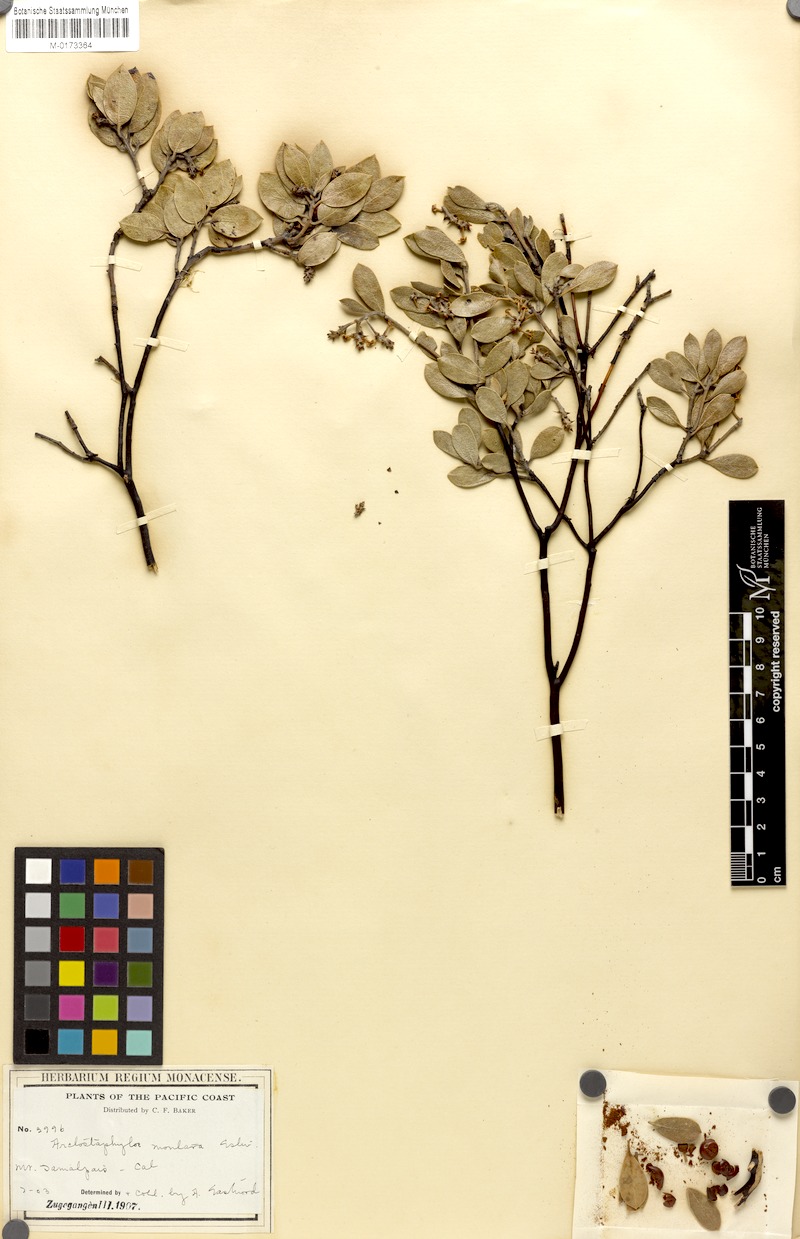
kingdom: Plantae
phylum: Tracheophyta
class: Magnoliopsida
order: Ericales
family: Ericaceae
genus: Arctostaphylos
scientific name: Arctostaphylos montana
